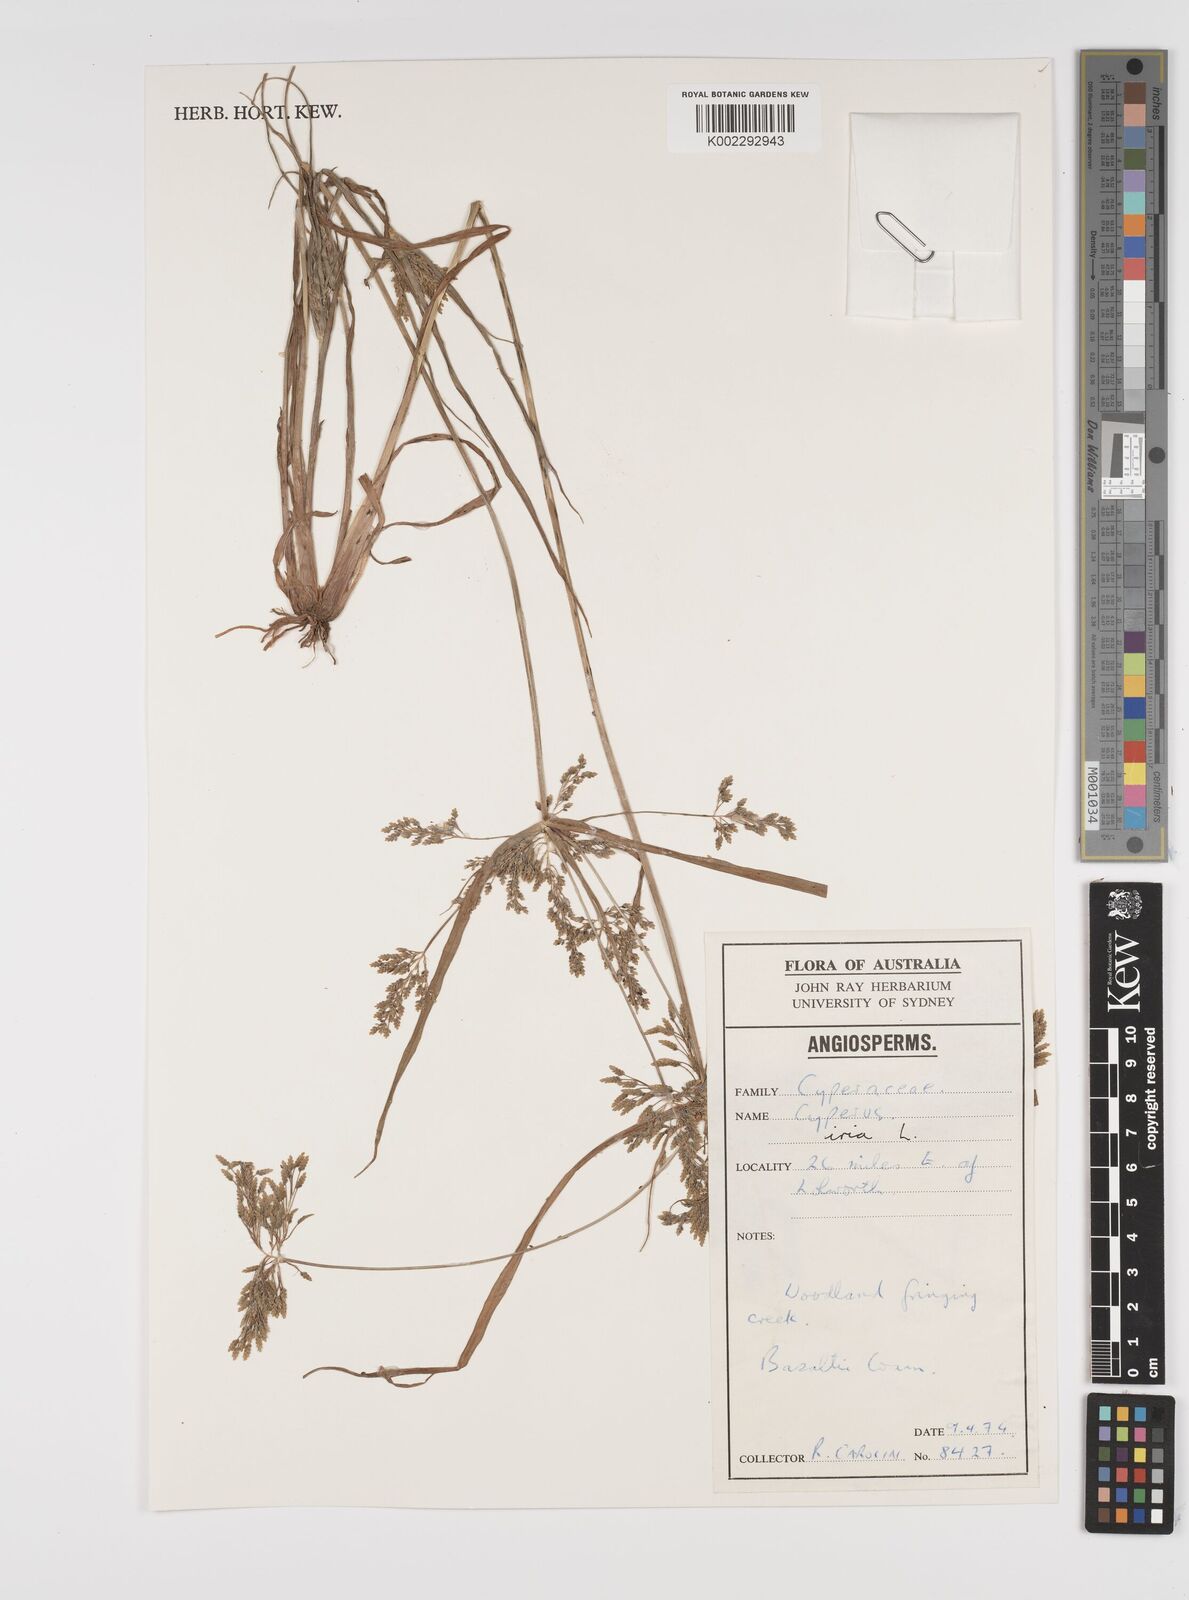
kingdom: Plantae
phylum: Tracheophyta
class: Liliopsida
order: Poales
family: Cyperaceae
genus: Cyperus
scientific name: Cyperus iria
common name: Ricefield flatsedge
